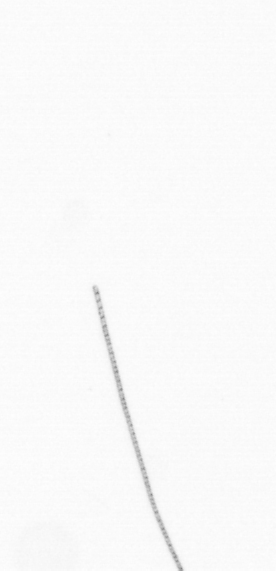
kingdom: Chromista
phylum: Ochrophyta
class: Bacillariophyceae
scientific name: Bacillariophyceae
